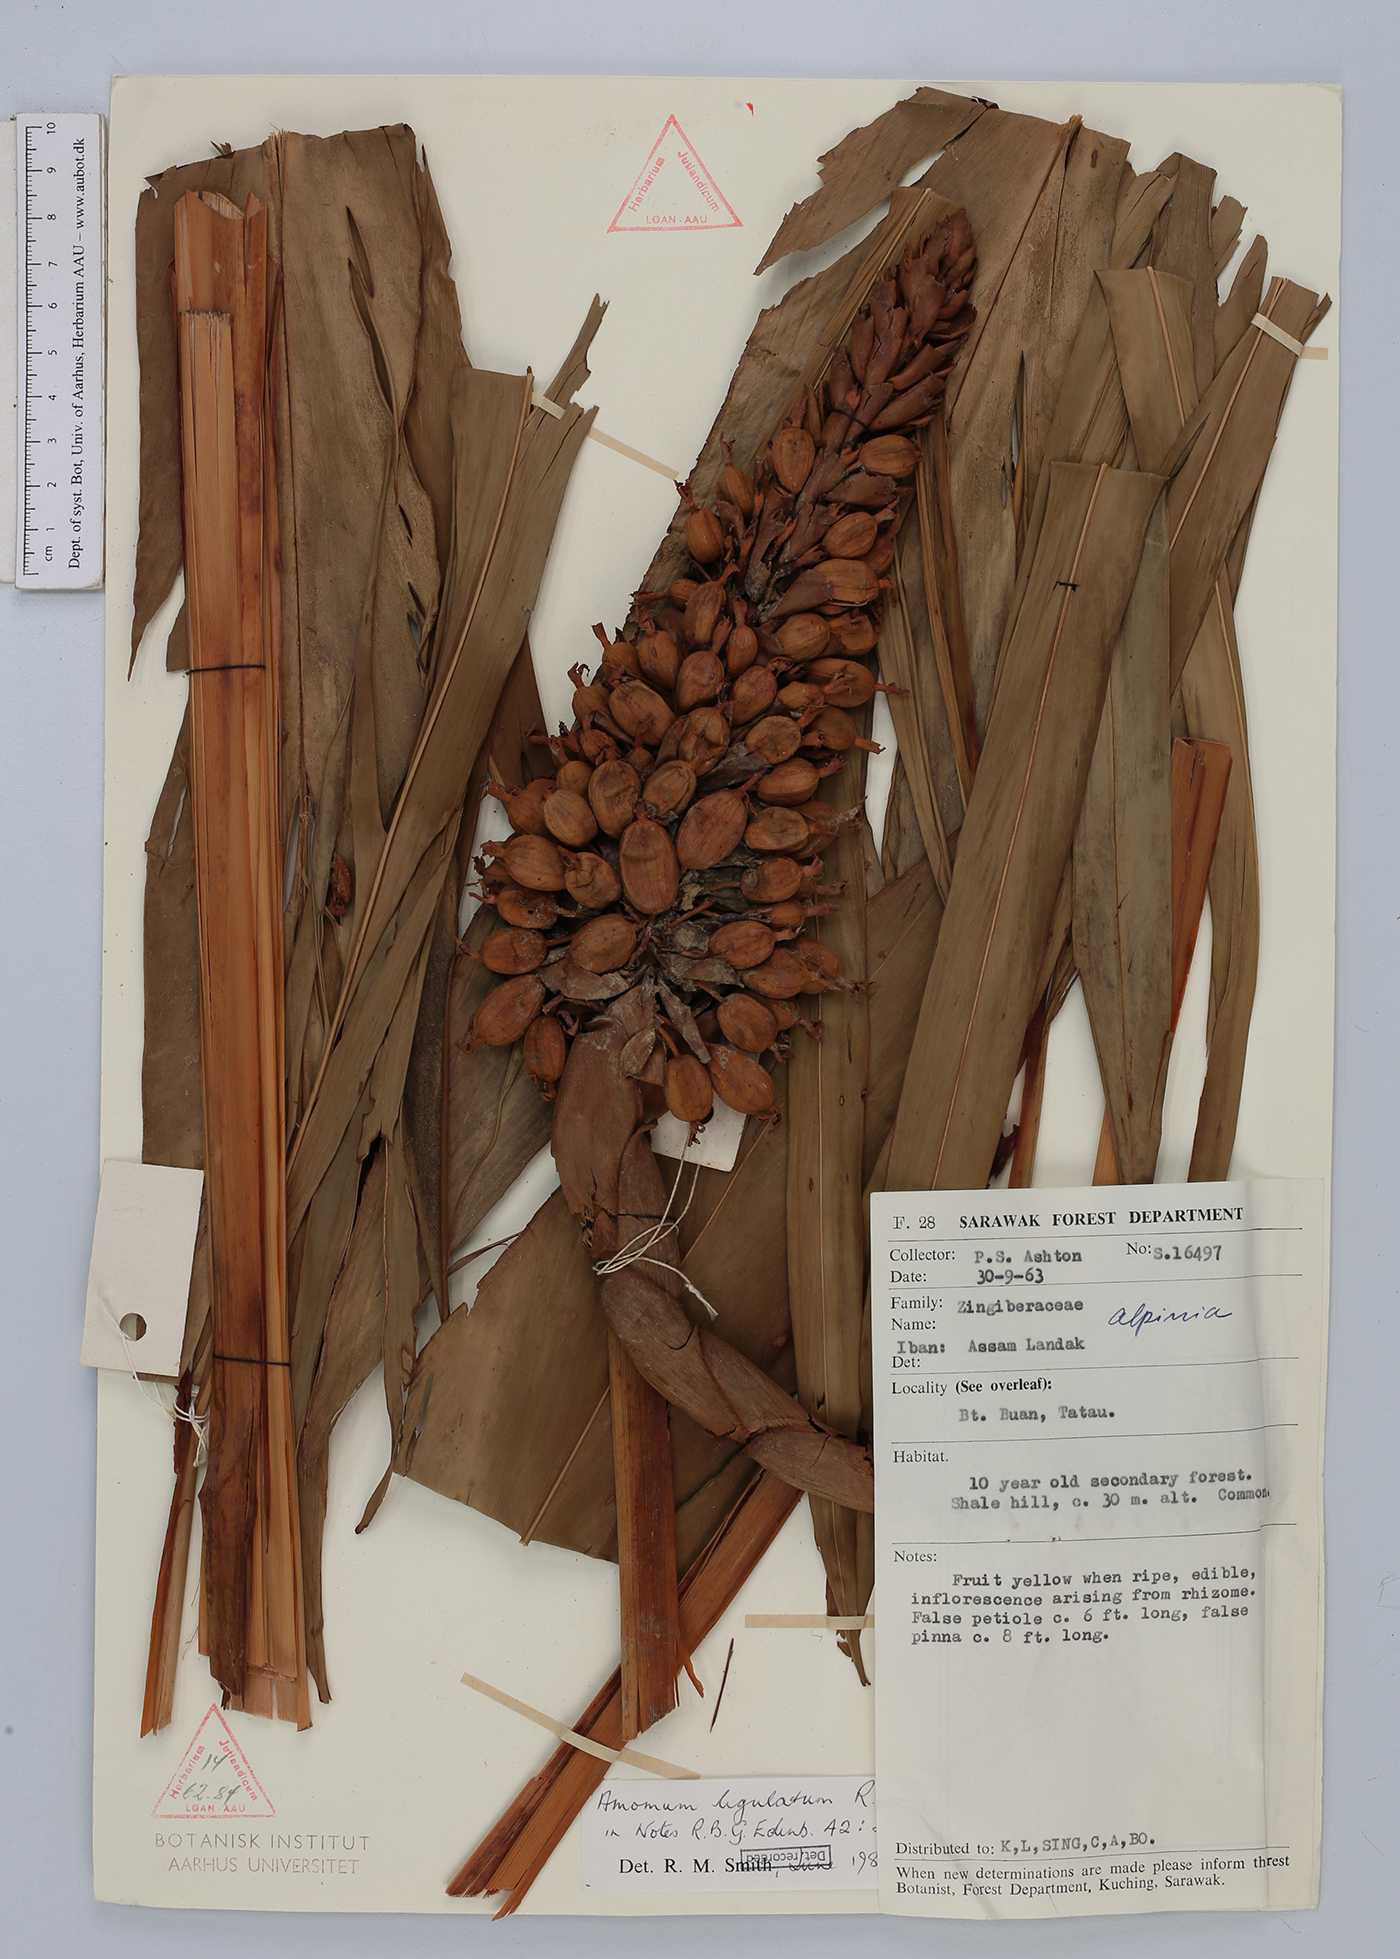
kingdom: Plantae
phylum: Tracheophyta
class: Liliopsida
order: Zingiberales
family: Zingiberaceae
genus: Sulettaria
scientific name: Sulettaria ligulata
